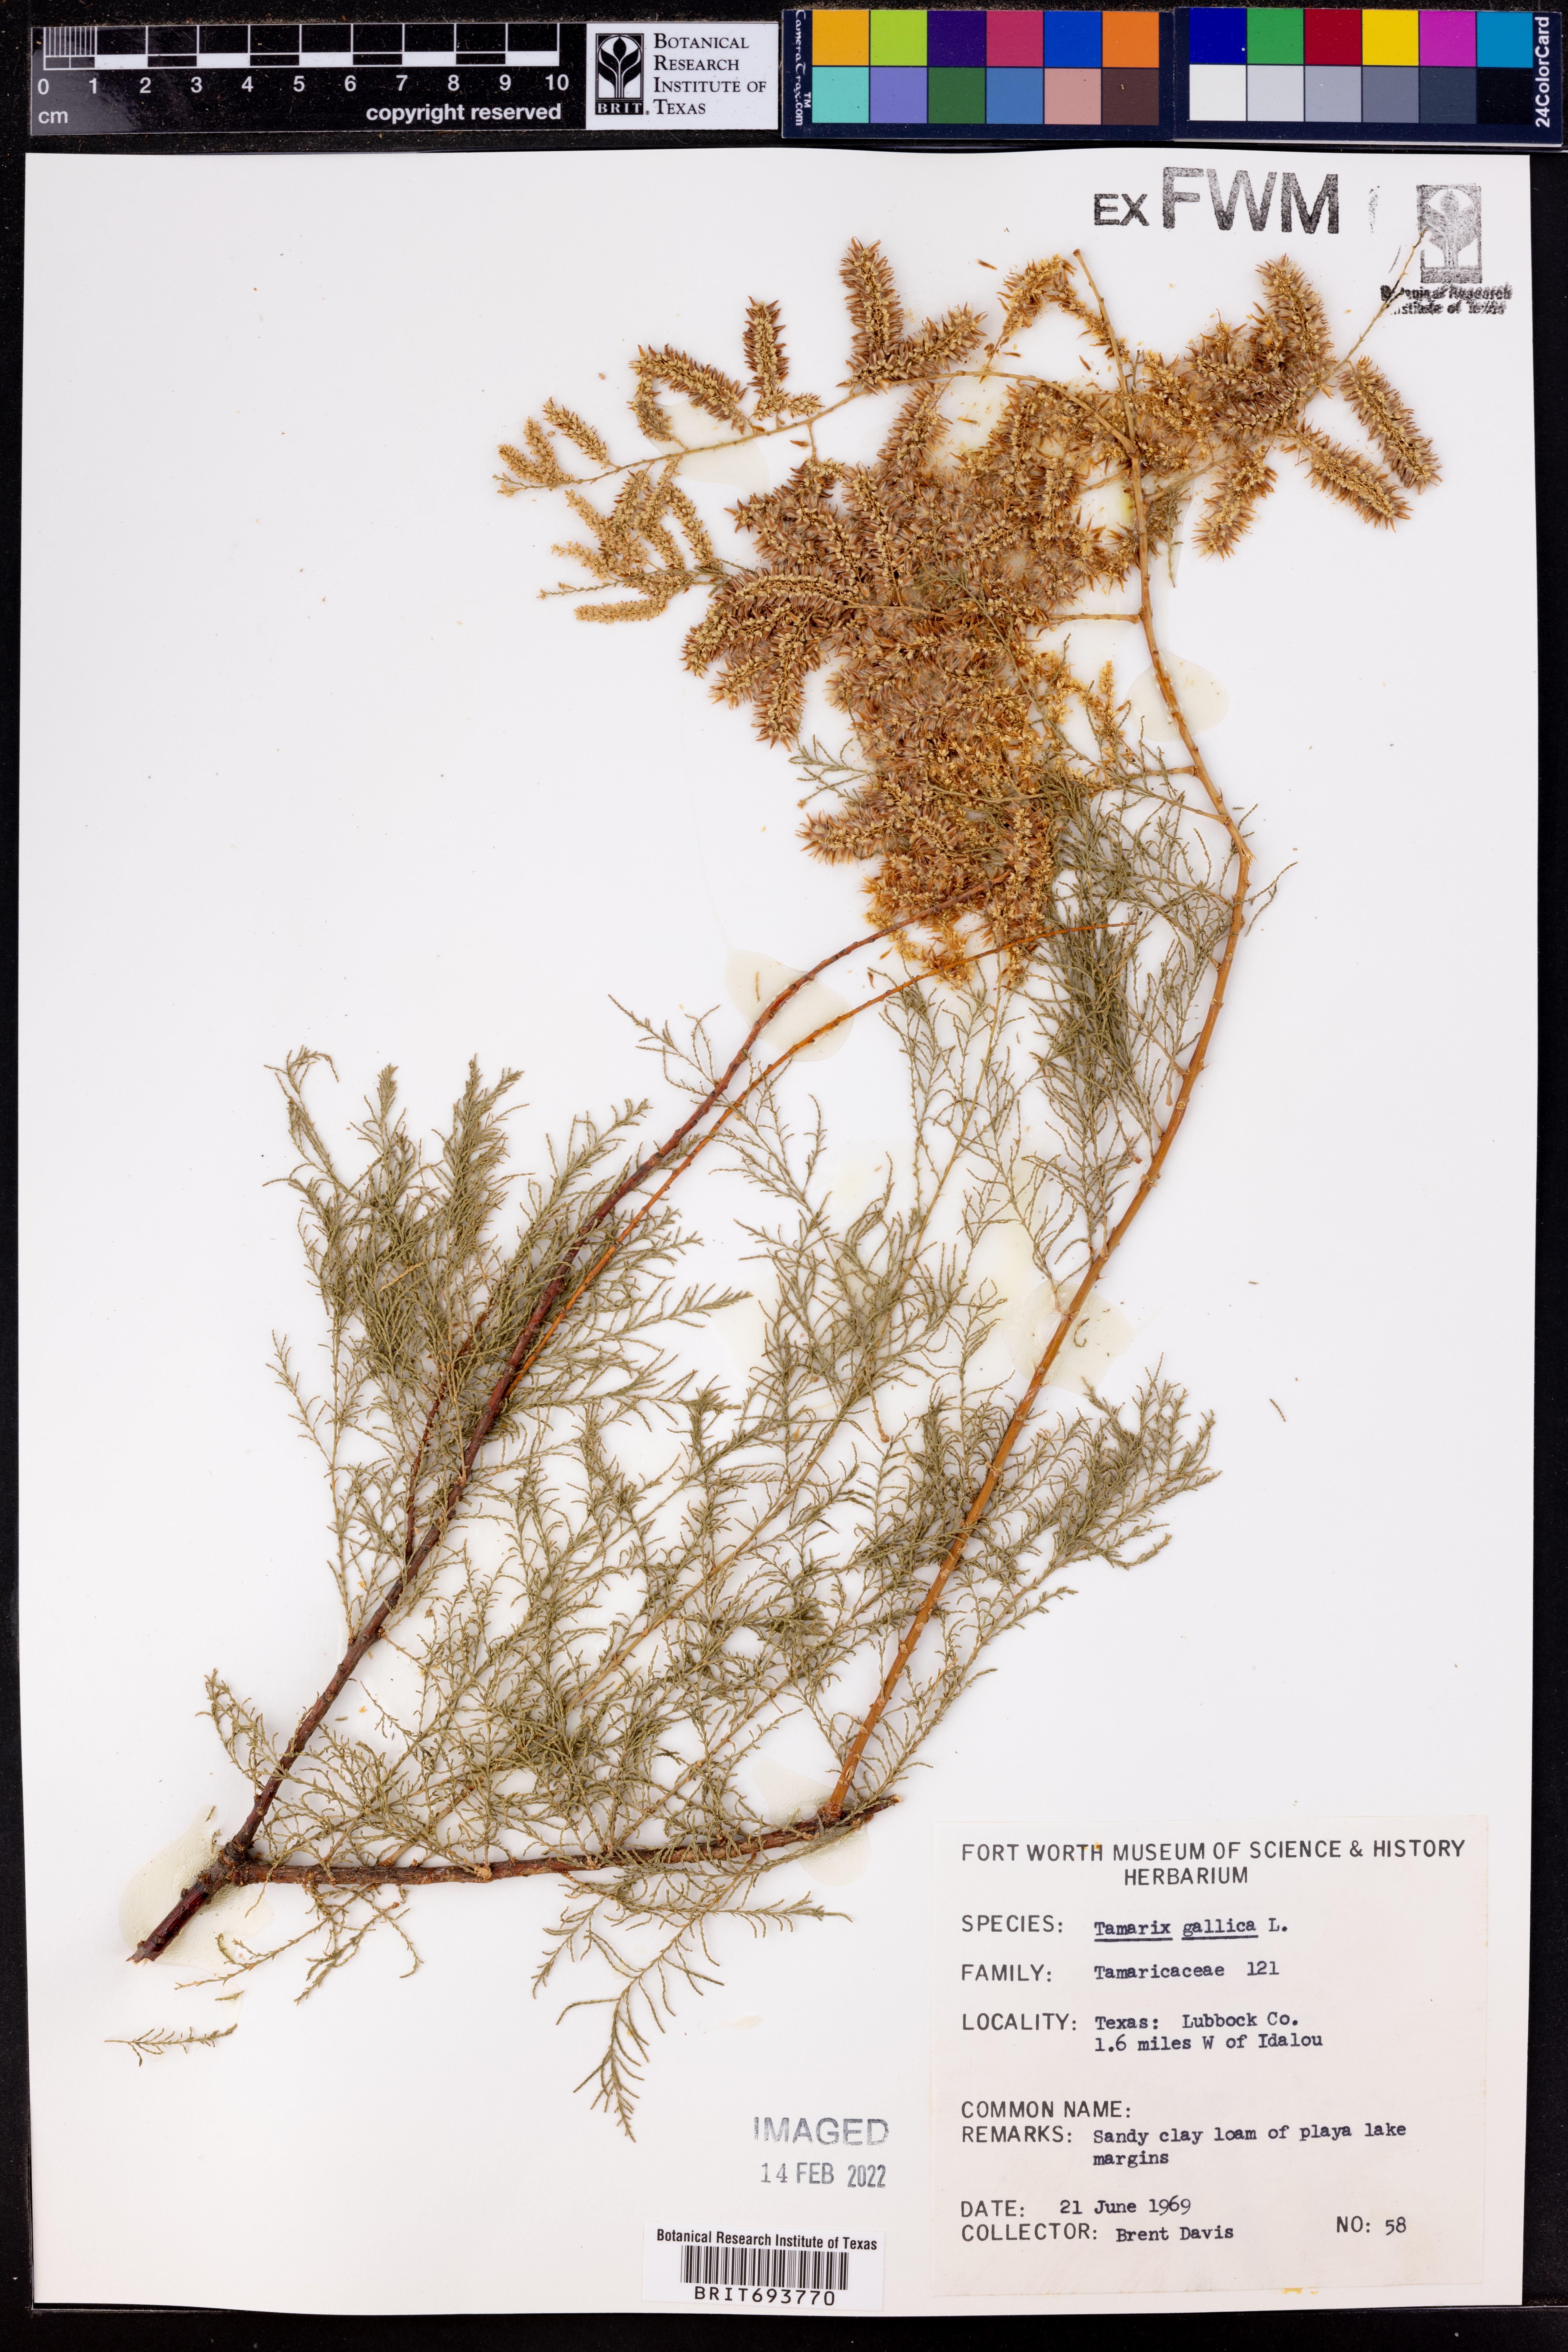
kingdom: Plantae
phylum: Tracheophyta
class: Magnoliopsida
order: Caryophyllales
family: Tamaricaceae
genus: Tamarix
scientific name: Tamarix gallica
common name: Tamarisk
